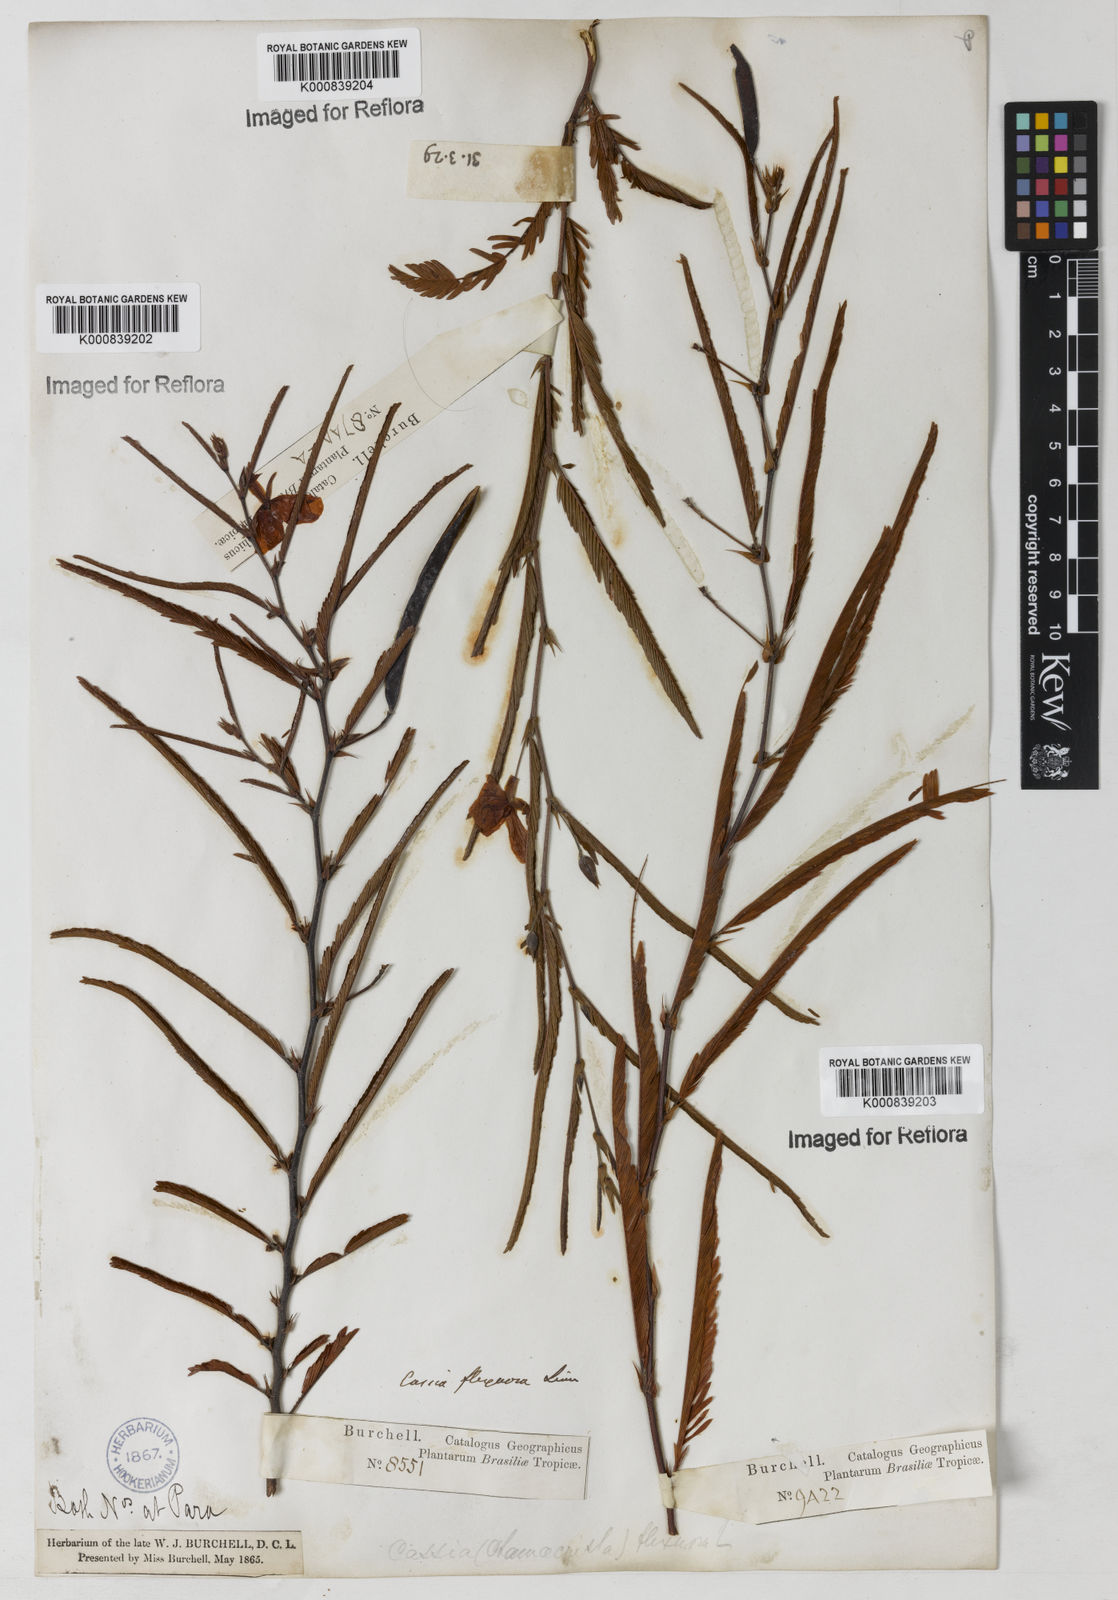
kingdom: Plantae
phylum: Tracheophyta
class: Magnoliopsida
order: Fabales
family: Fabaceae
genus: Chamaecrista
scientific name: Chamaecrista flexuosa
